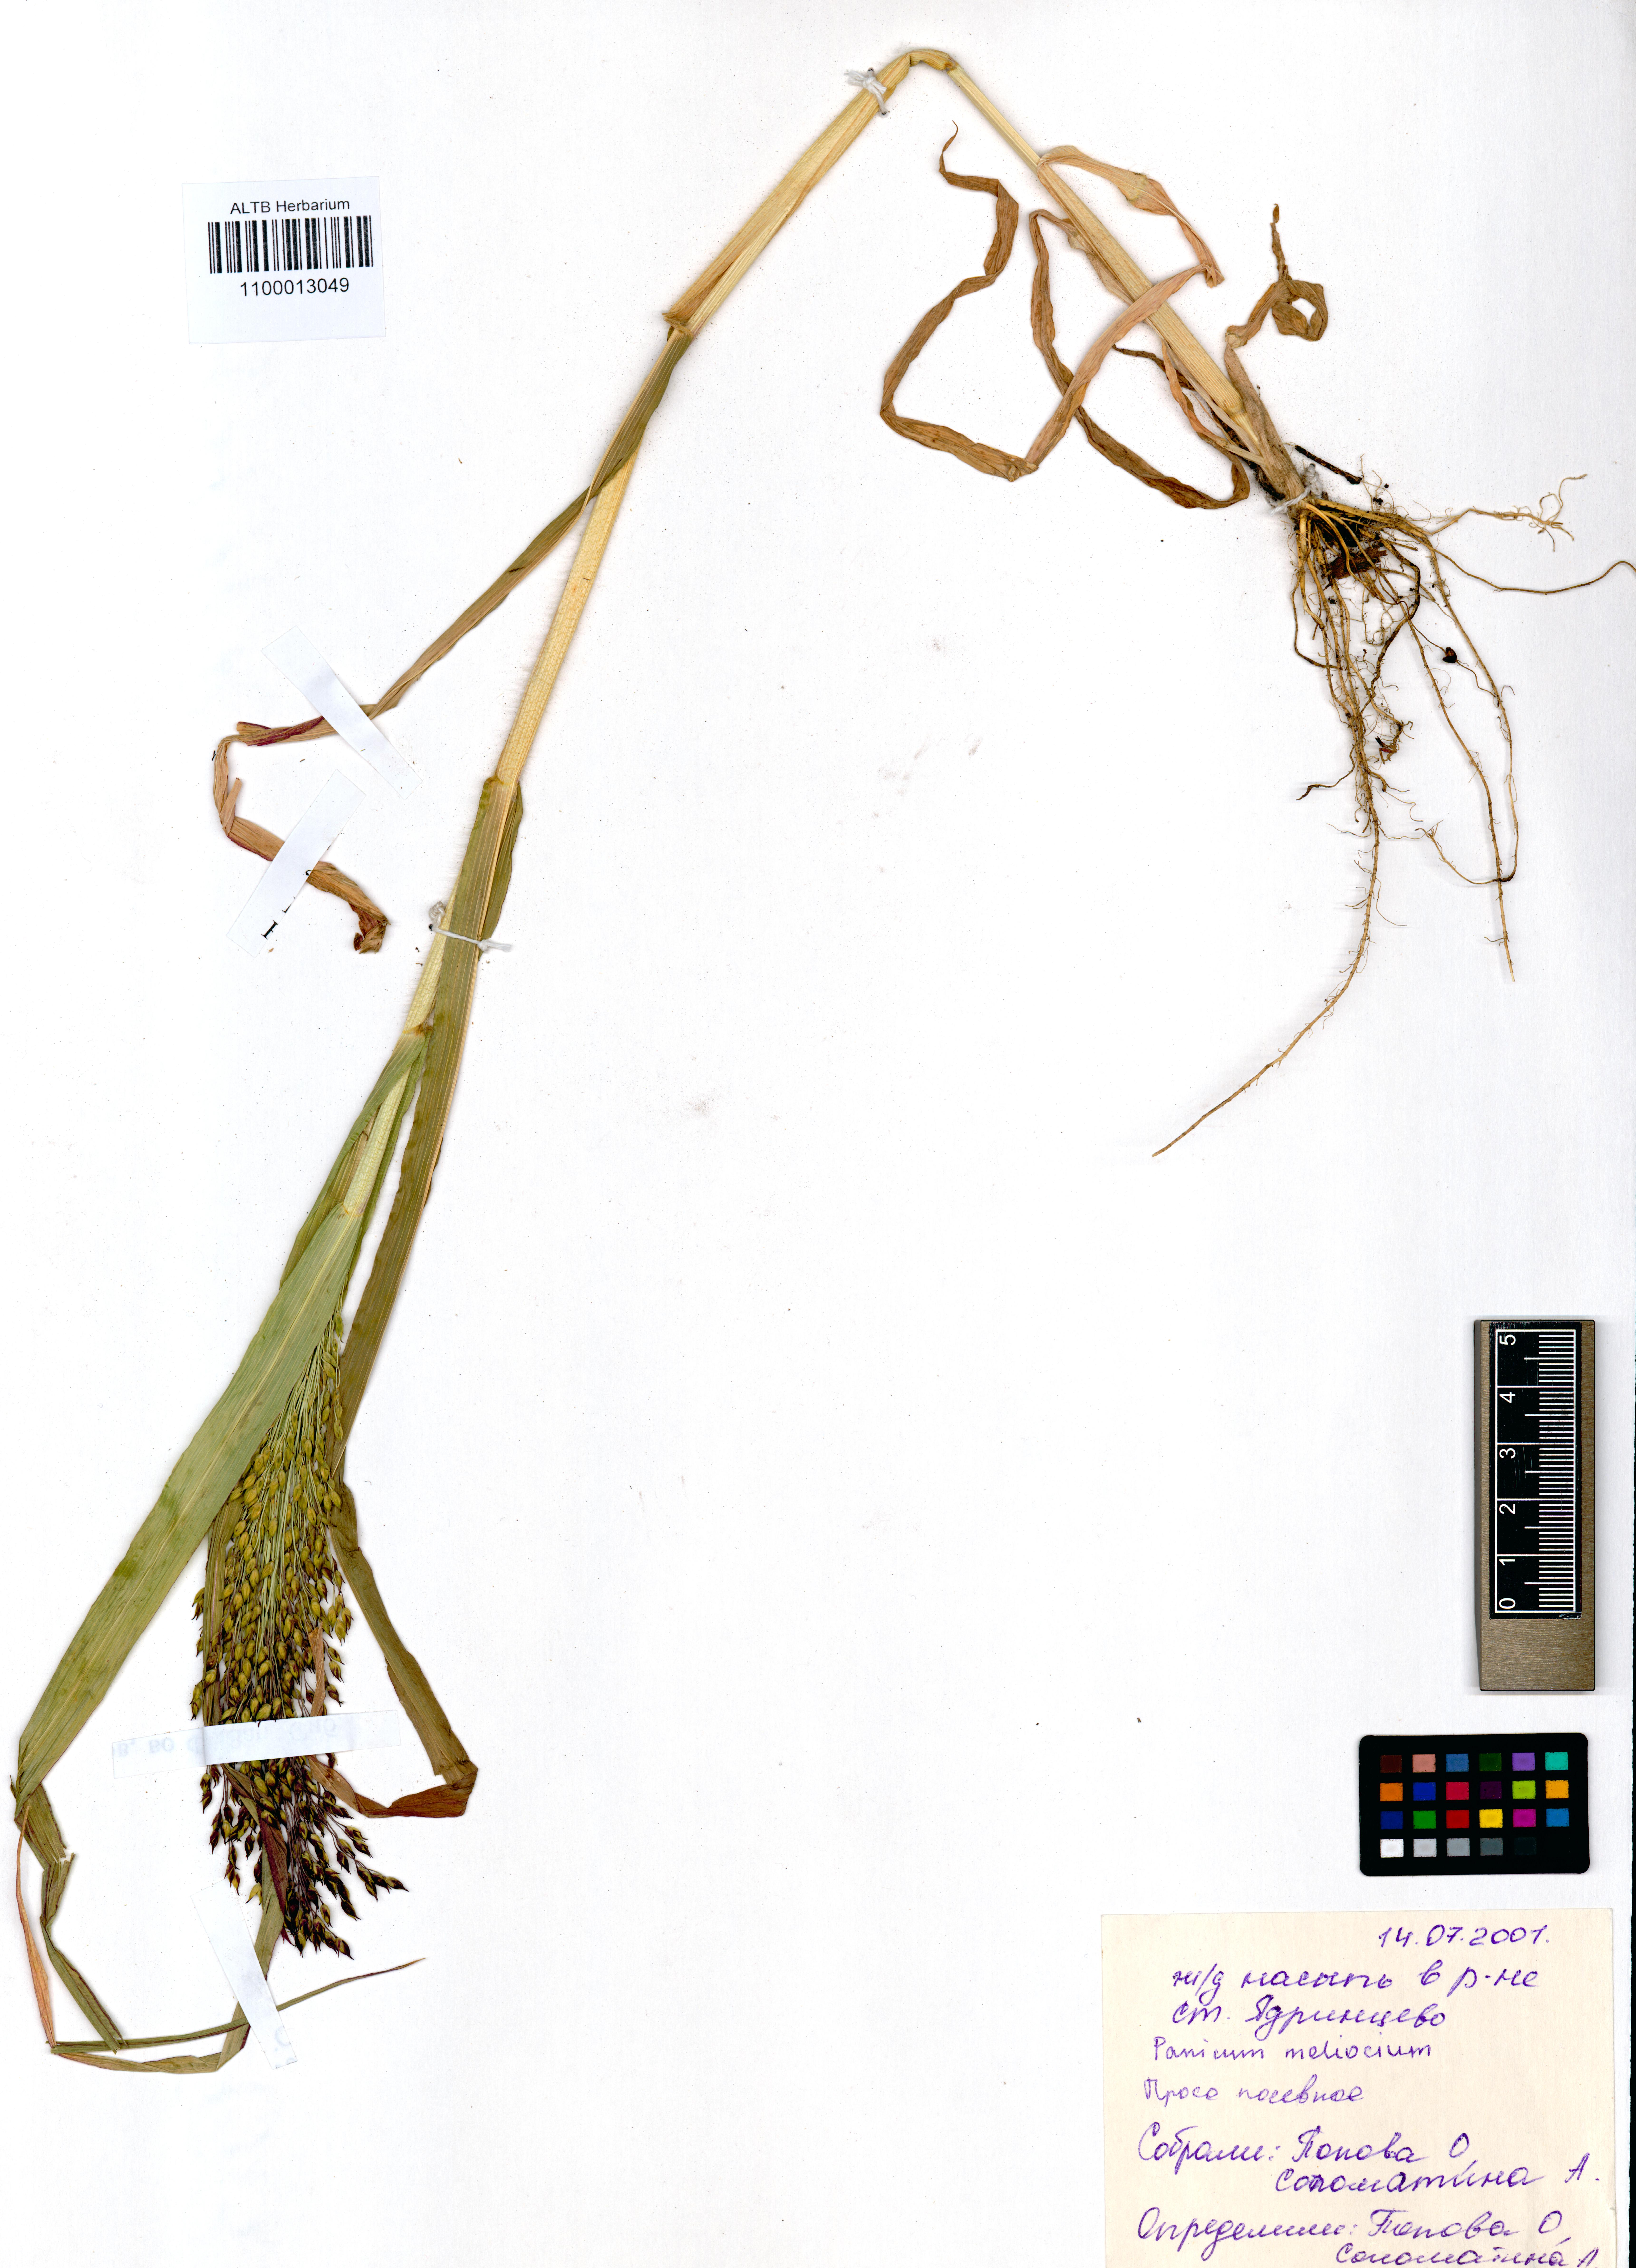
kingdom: Plantae
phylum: Tracheophyta
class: Liliopsida
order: Poales
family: Poaceae
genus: Panicum
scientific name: Panicum miliaceum
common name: Common millet
